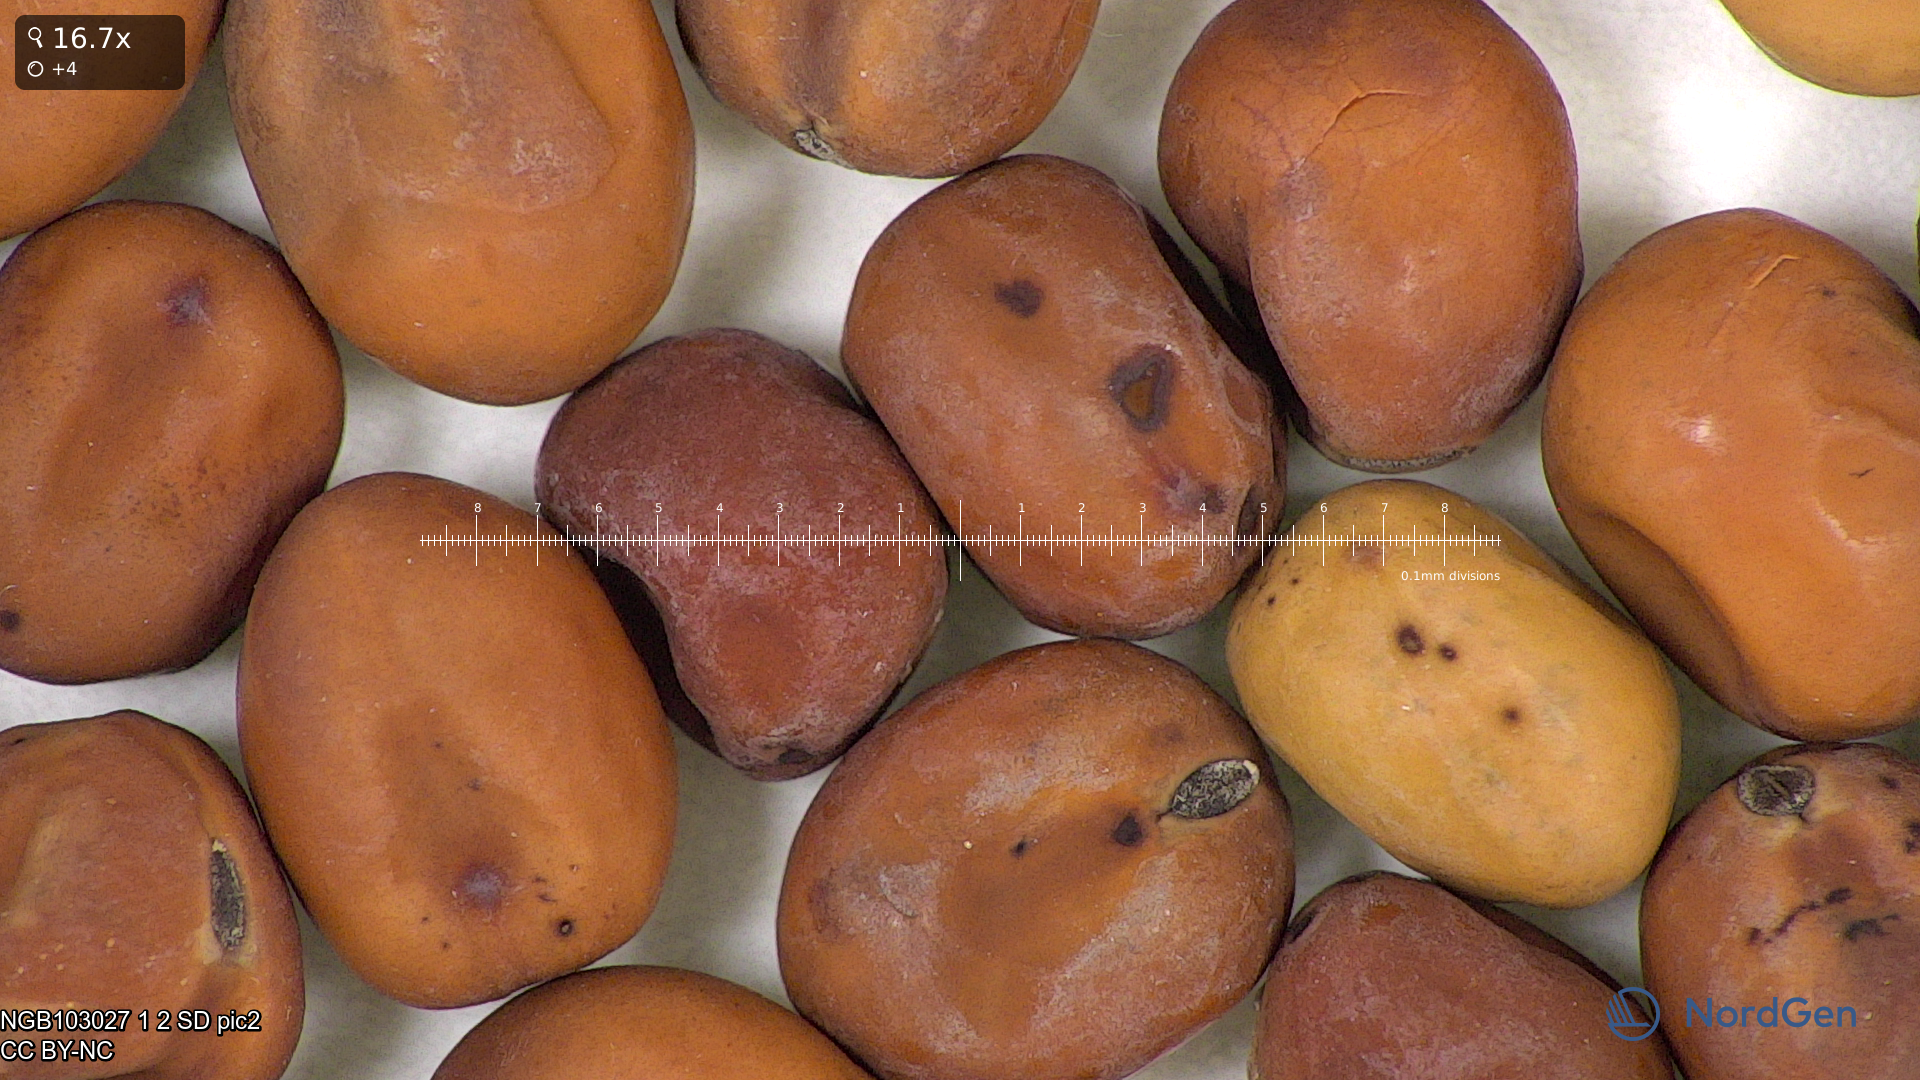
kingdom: Plantae
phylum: Tracheophyta
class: Magnoliopsida
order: Fabales
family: Fabaceae
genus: Lathyrus
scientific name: Lathyrus oleraceus
